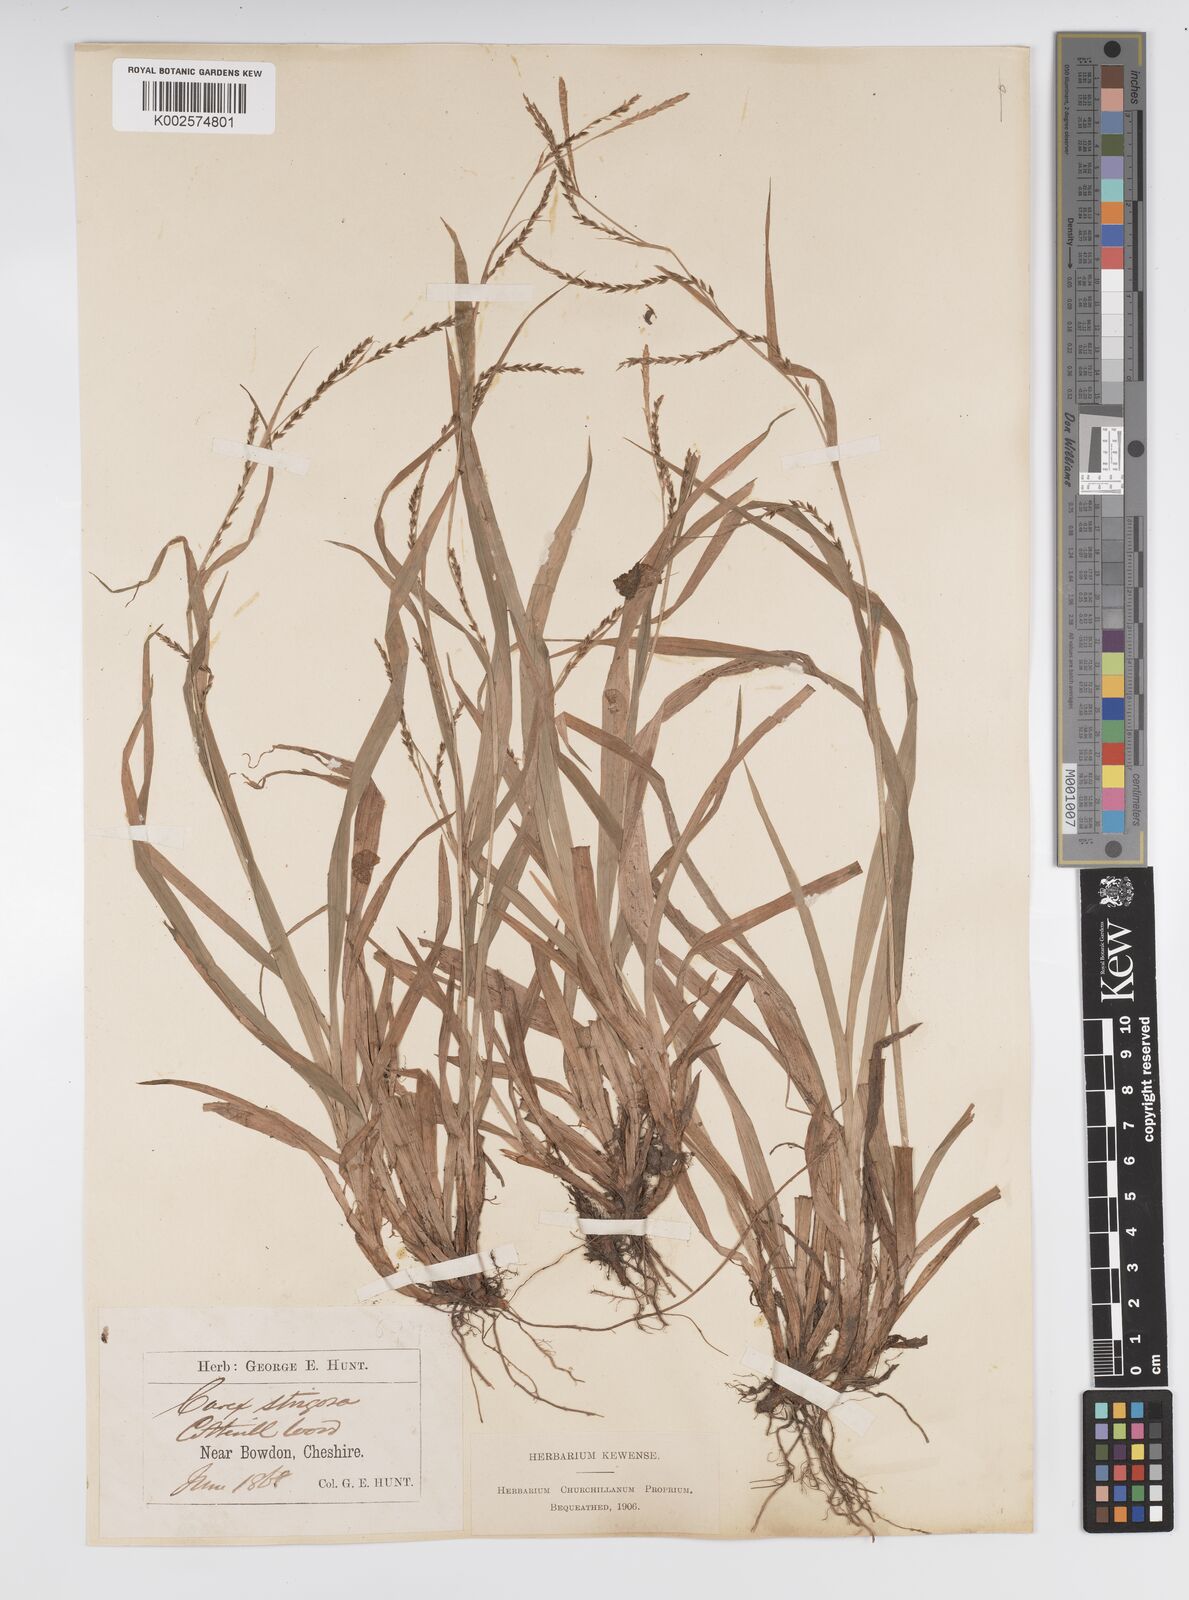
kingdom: Plantae
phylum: Tracheophyta
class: Liliopsida
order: Poales
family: Cyperaceae
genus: Carex
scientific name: Carex strigosa
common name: Thin-spiked wood-sedge
